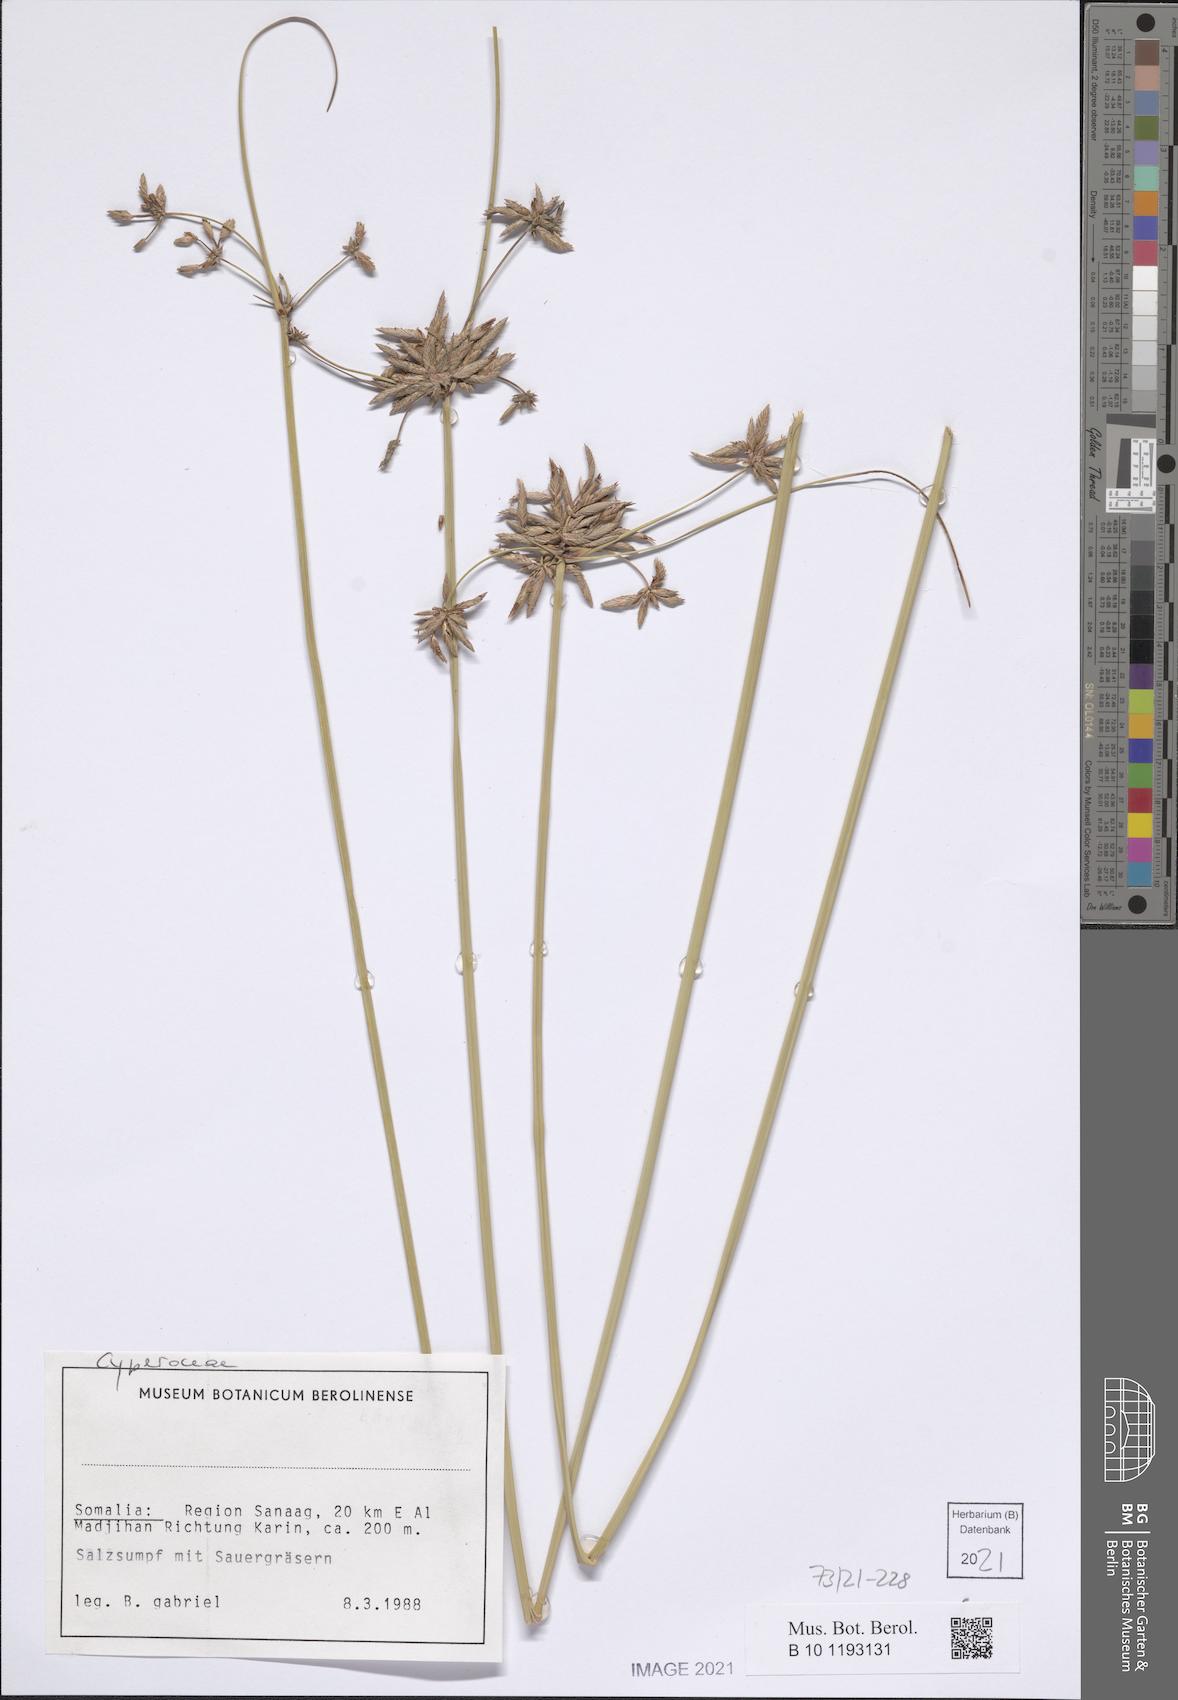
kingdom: Plantae
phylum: Tracheophyta
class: Liliopsida
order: Poales
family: Cyperaceae
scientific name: Cyperaceae
